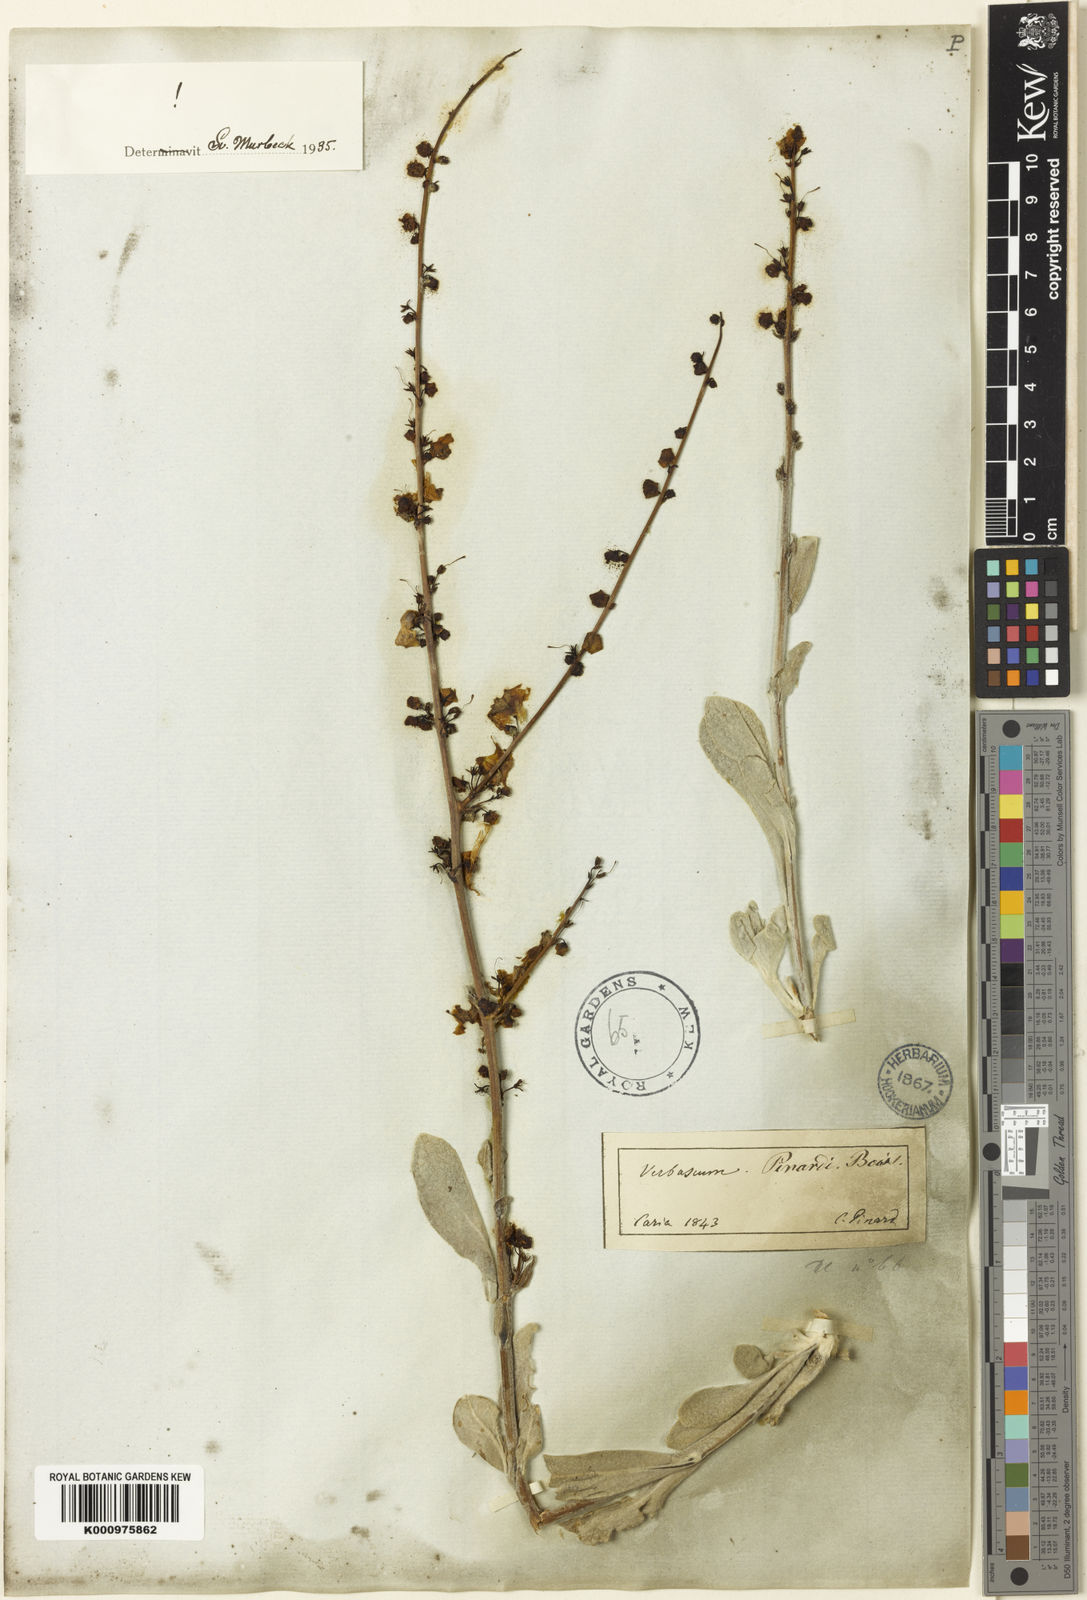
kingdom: Plantae
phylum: Tracheophyta
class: Magnoliopsida
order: Lamiales
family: Scrophulariaceae
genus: Verbascum
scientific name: Verbascum pinardii
